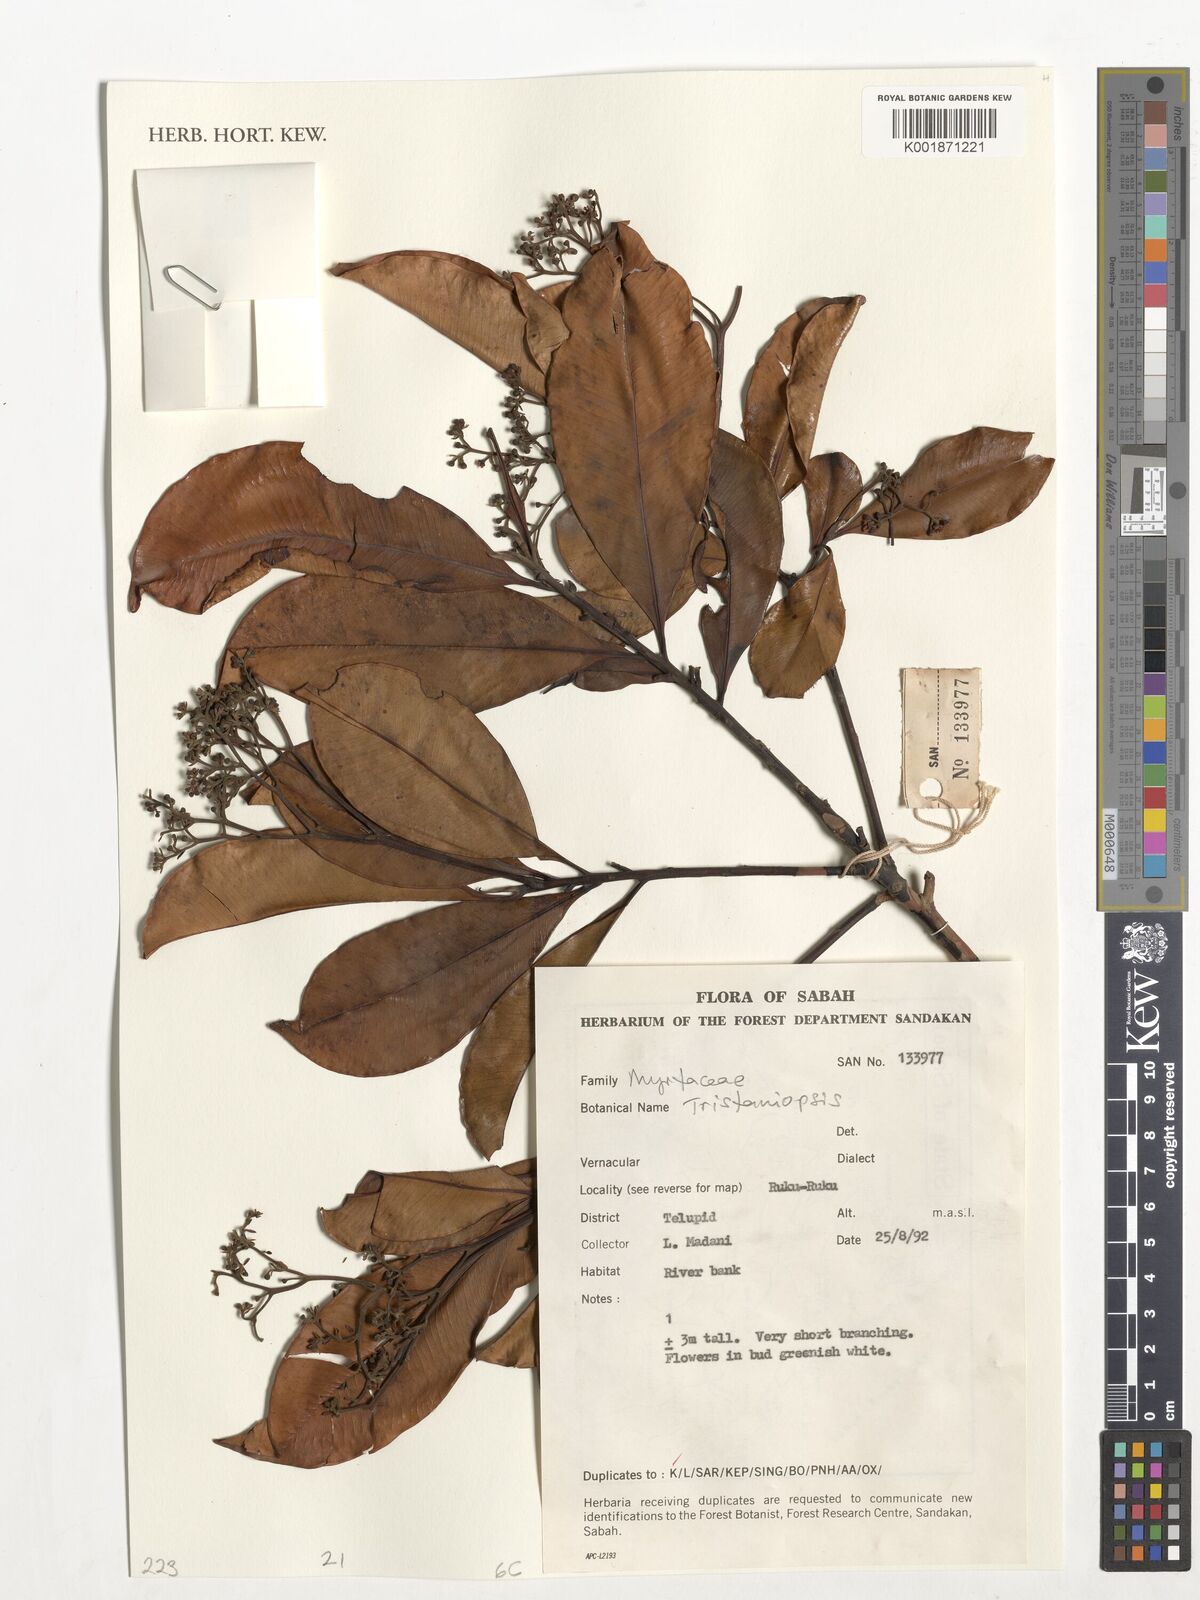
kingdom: Plantae
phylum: Tracheophyta
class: Magnoliopsida
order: Myrtales
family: Myrtaceae
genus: Tristaniopsis
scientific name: Tristaniopsis
